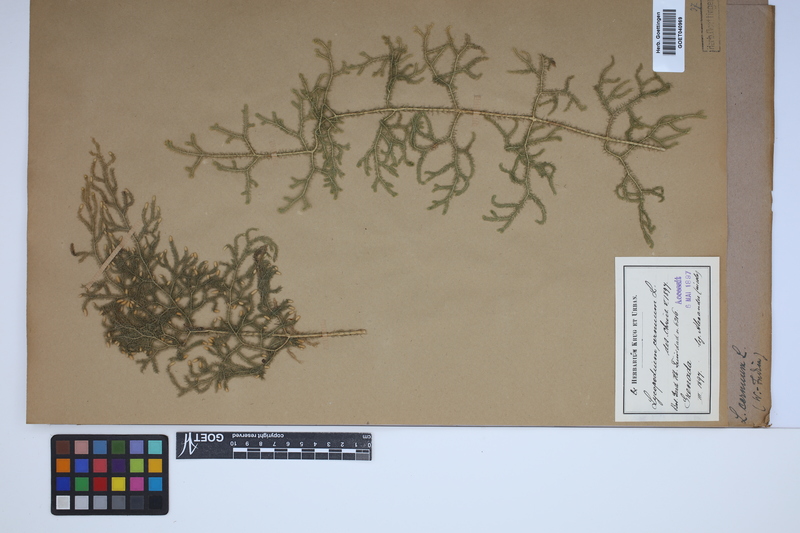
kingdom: Plantae
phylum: Tracheophyta
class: Lycopodiopsida
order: Lycopodiales
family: Lycopodiaceae
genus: Palhinhaea
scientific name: Palhinhaea cernua
